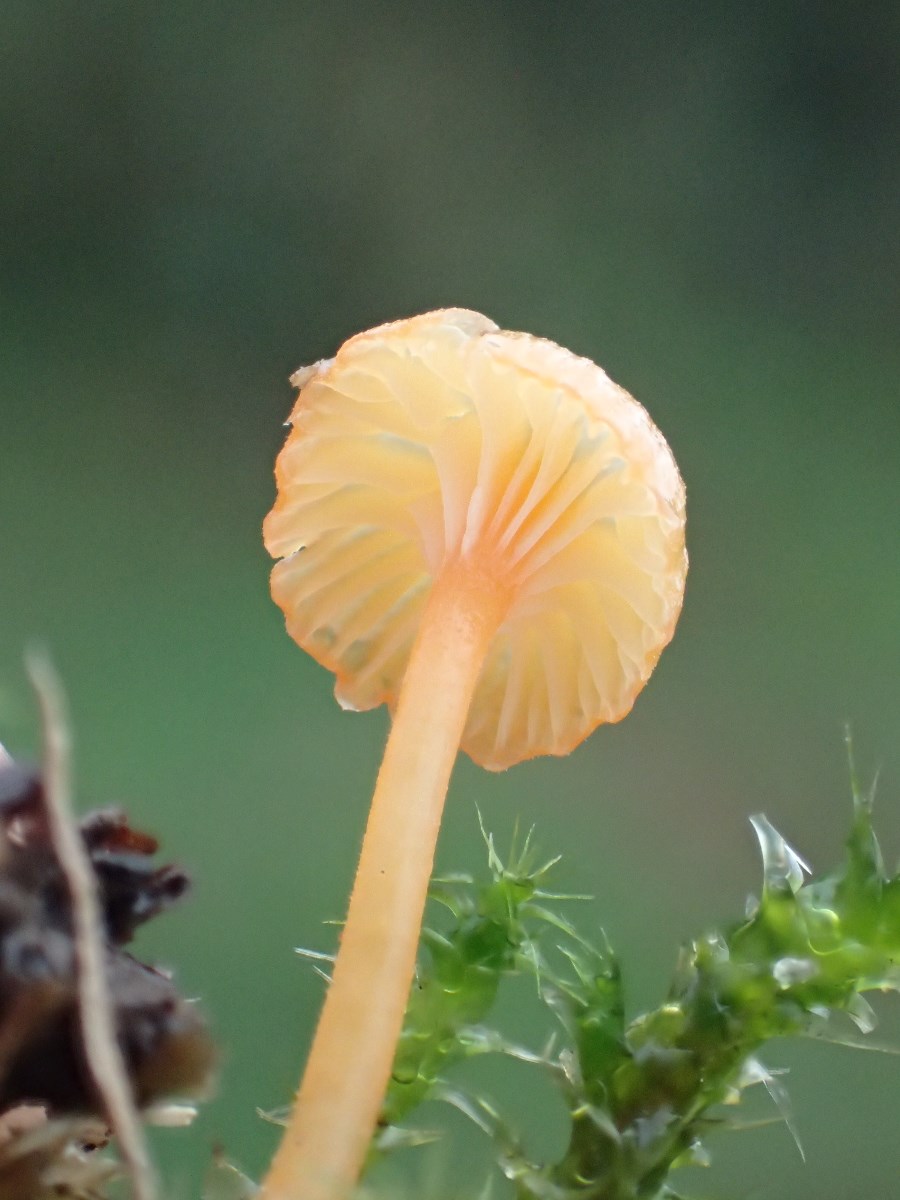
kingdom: Fungi
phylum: Basidiomycota
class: Agaricomycetes
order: Hymenochaetales
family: Rickenellaceae
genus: Rickenella
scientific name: Rickenella fibula
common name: orange mosnavlehat
